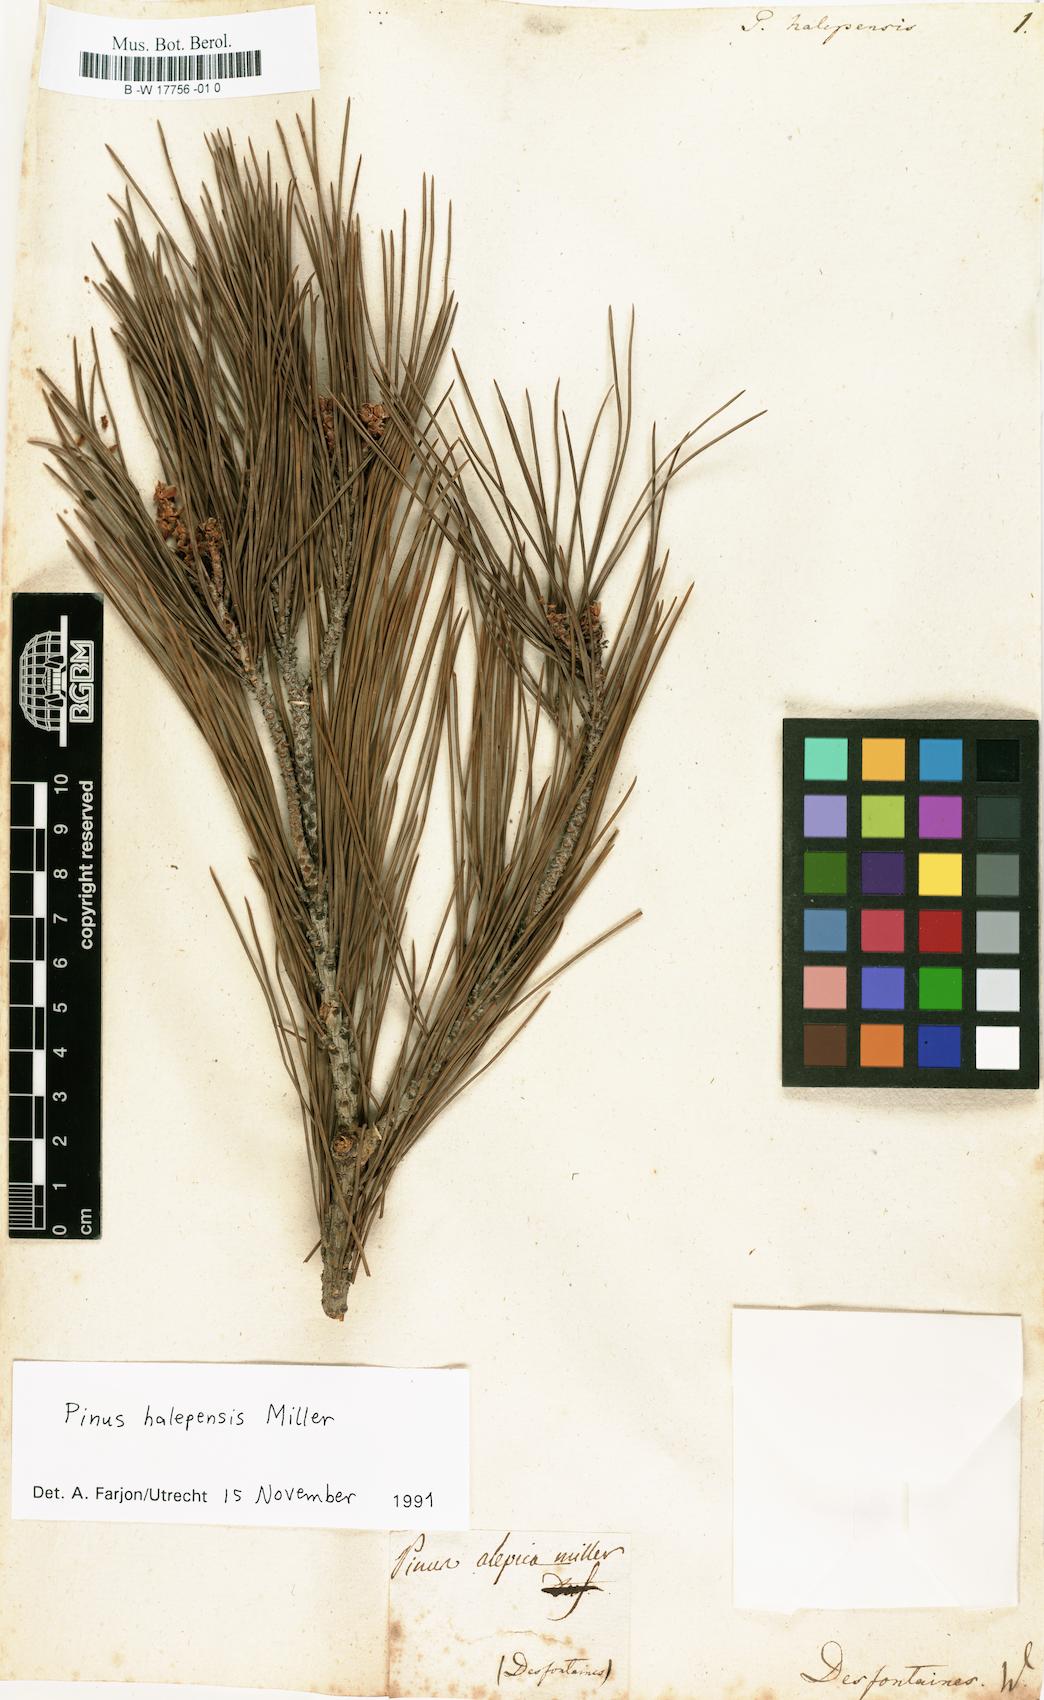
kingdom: Plantae
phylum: Tracheophyta
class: Pinopsida
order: Pinales
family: Pinaceae
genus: Pinus
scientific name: Pinus halepensis
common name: Aleppo pine
